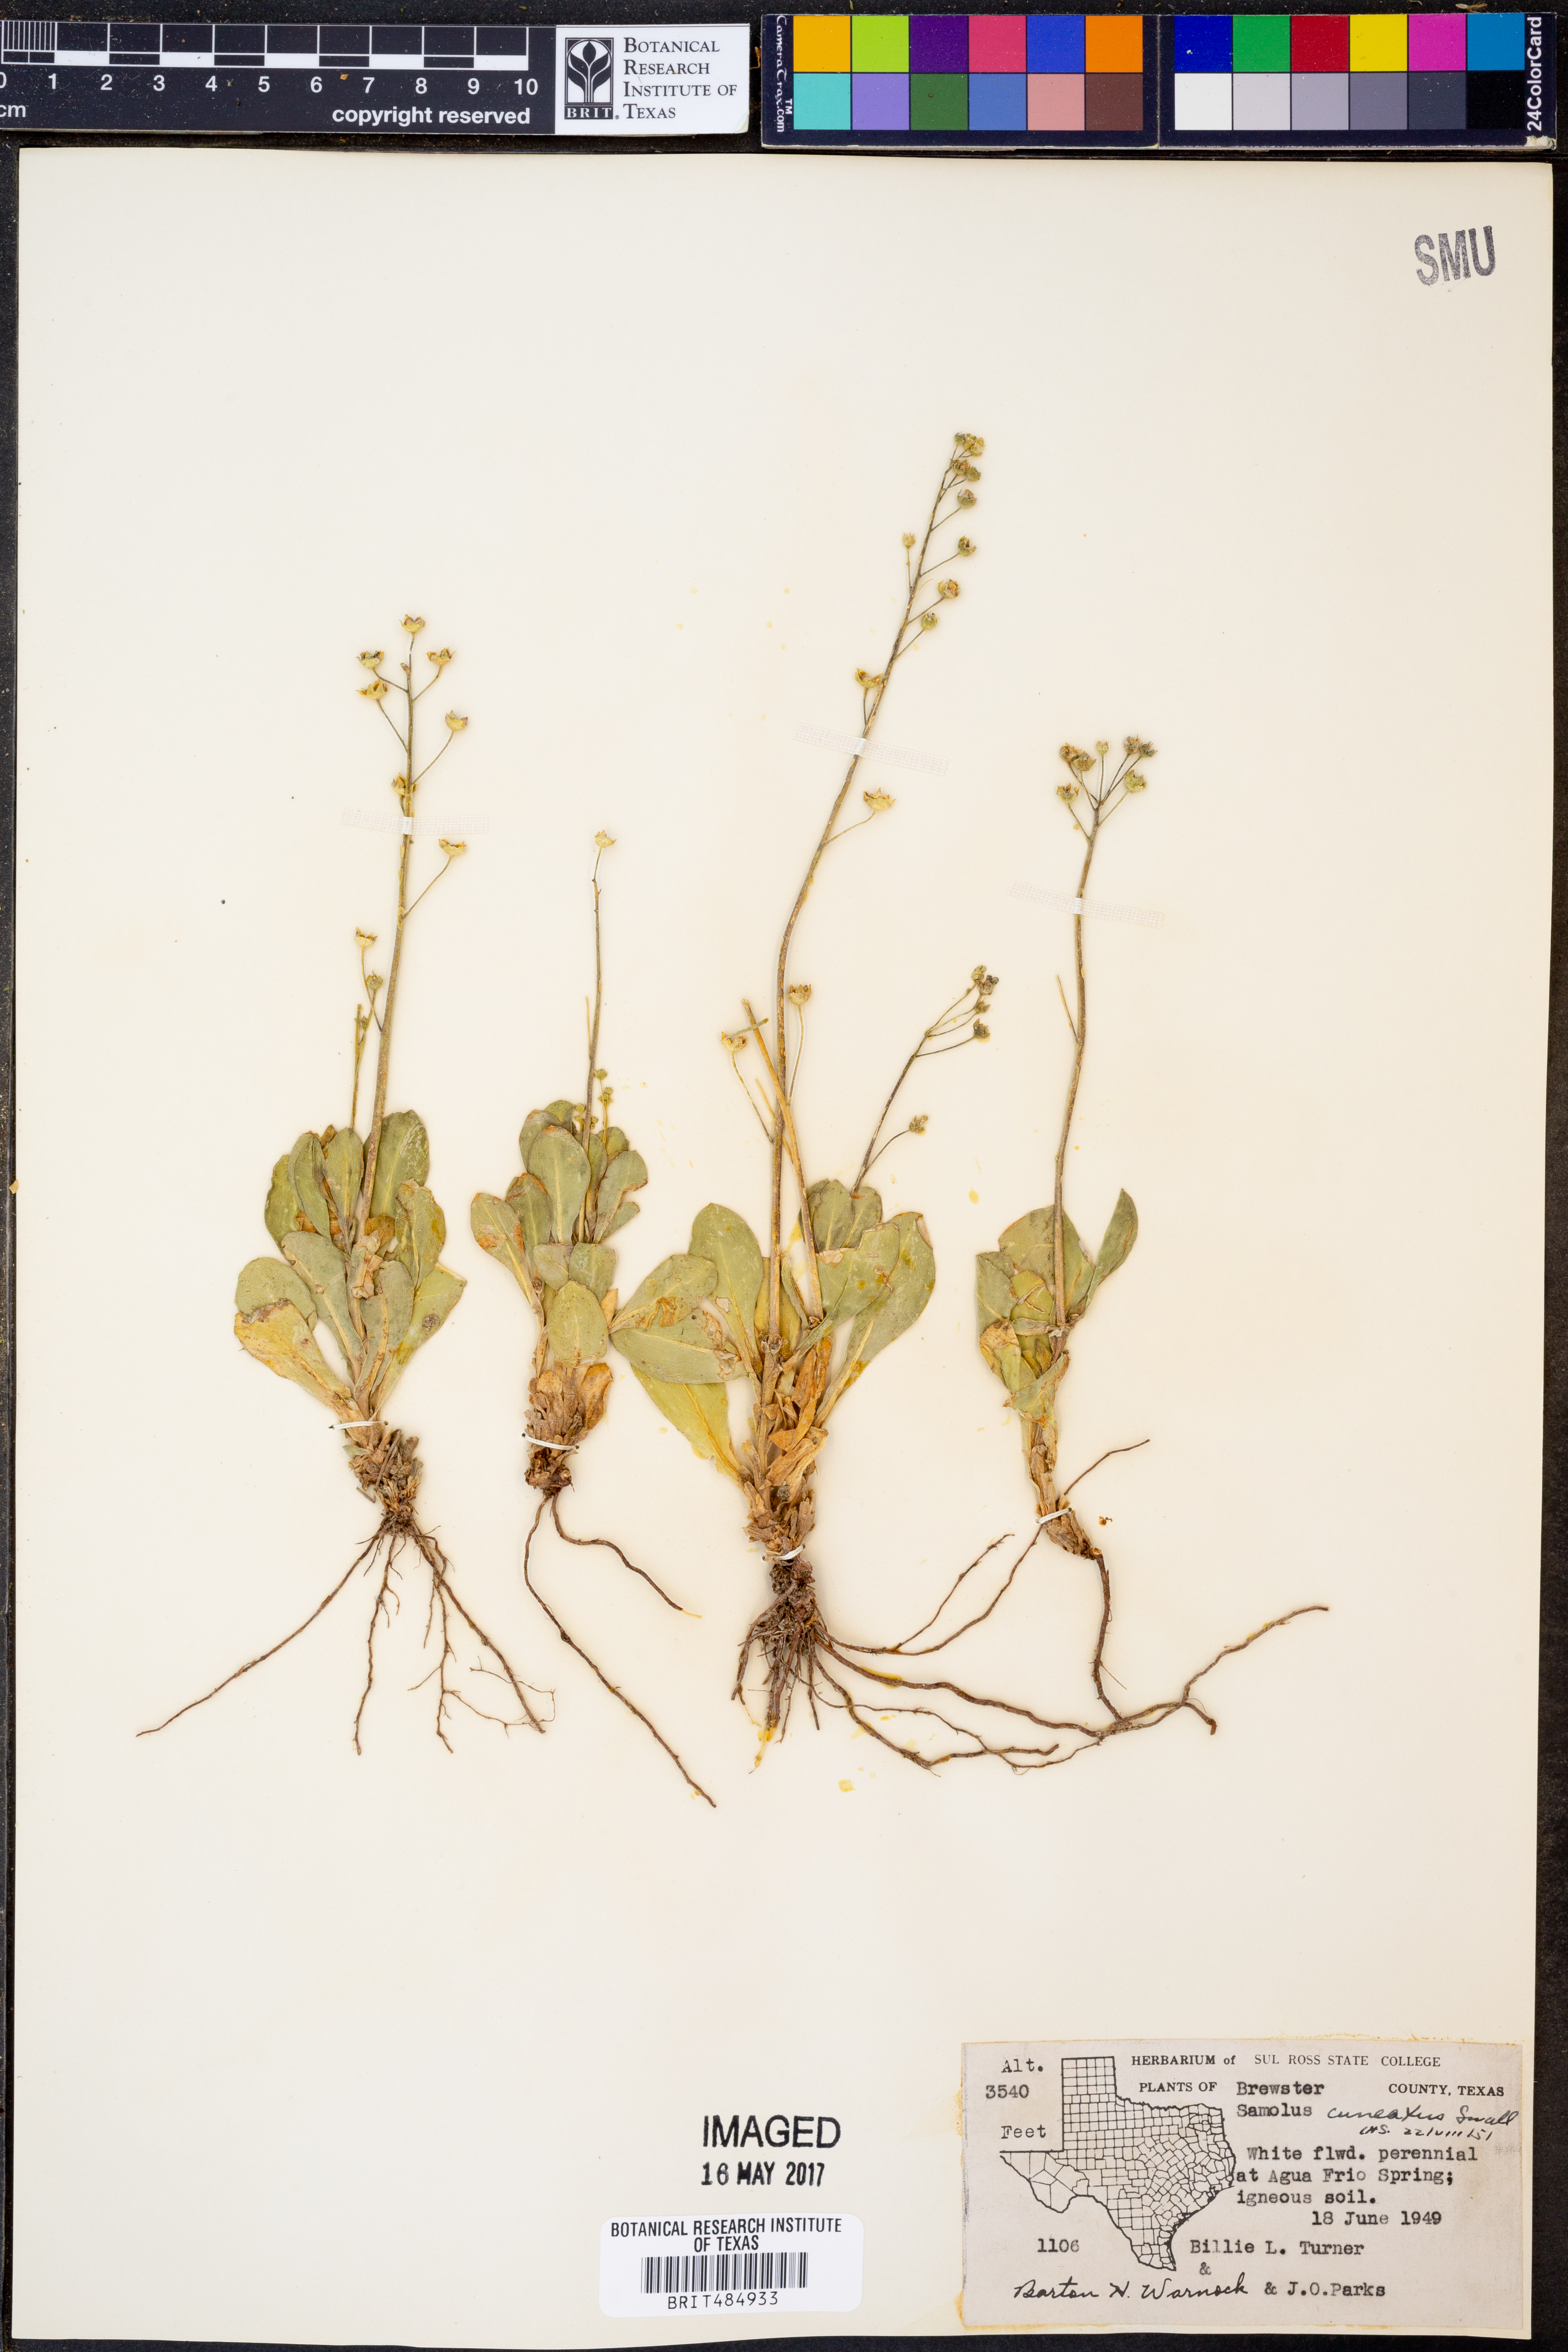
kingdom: Plantae
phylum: Tracheophyta
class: Magnoliopsida
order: Ericales
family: Primulaceae
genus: Samolus
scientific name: Samolus ebracteatus
